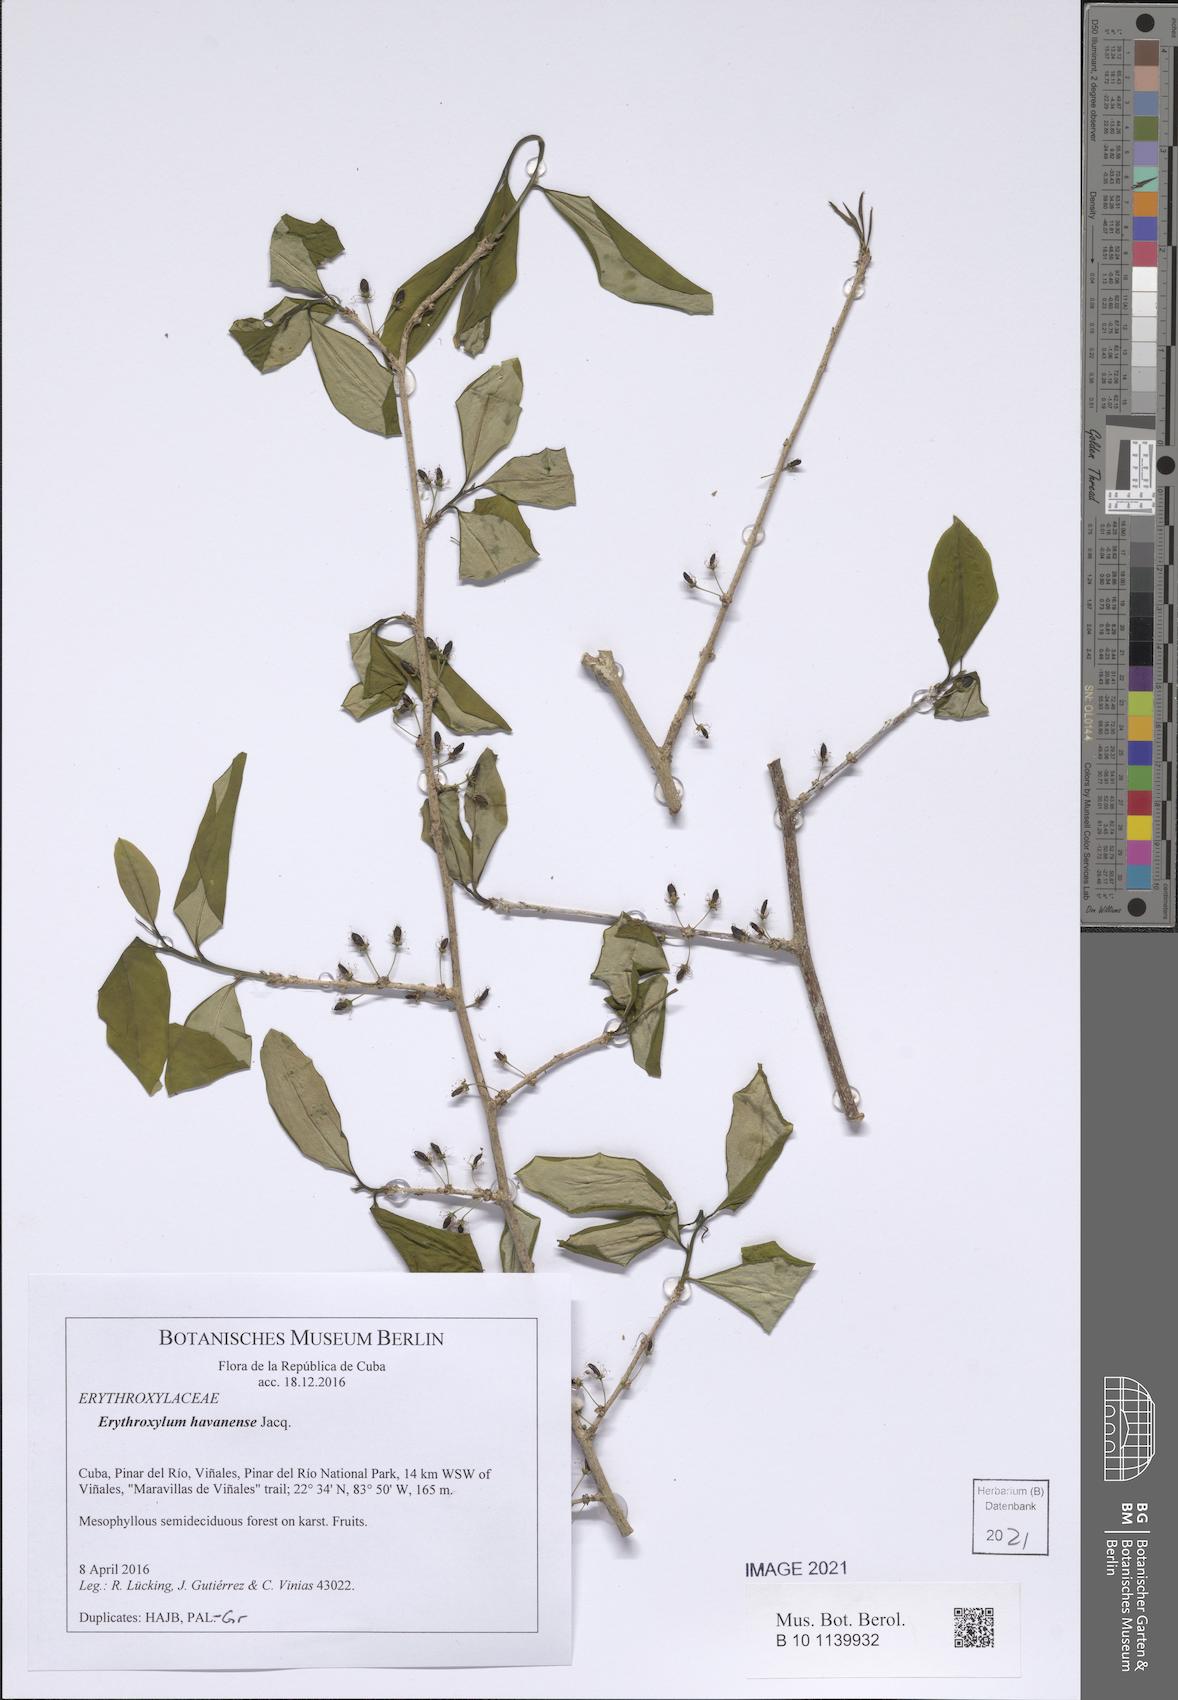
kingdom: Plantae
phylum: Tracheophyta
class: Magnoliopsida
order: Malpighiales
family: Erythroxylaceae
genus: Erythroxylum
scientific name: Erythroxylum havanense
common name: Bracelet
